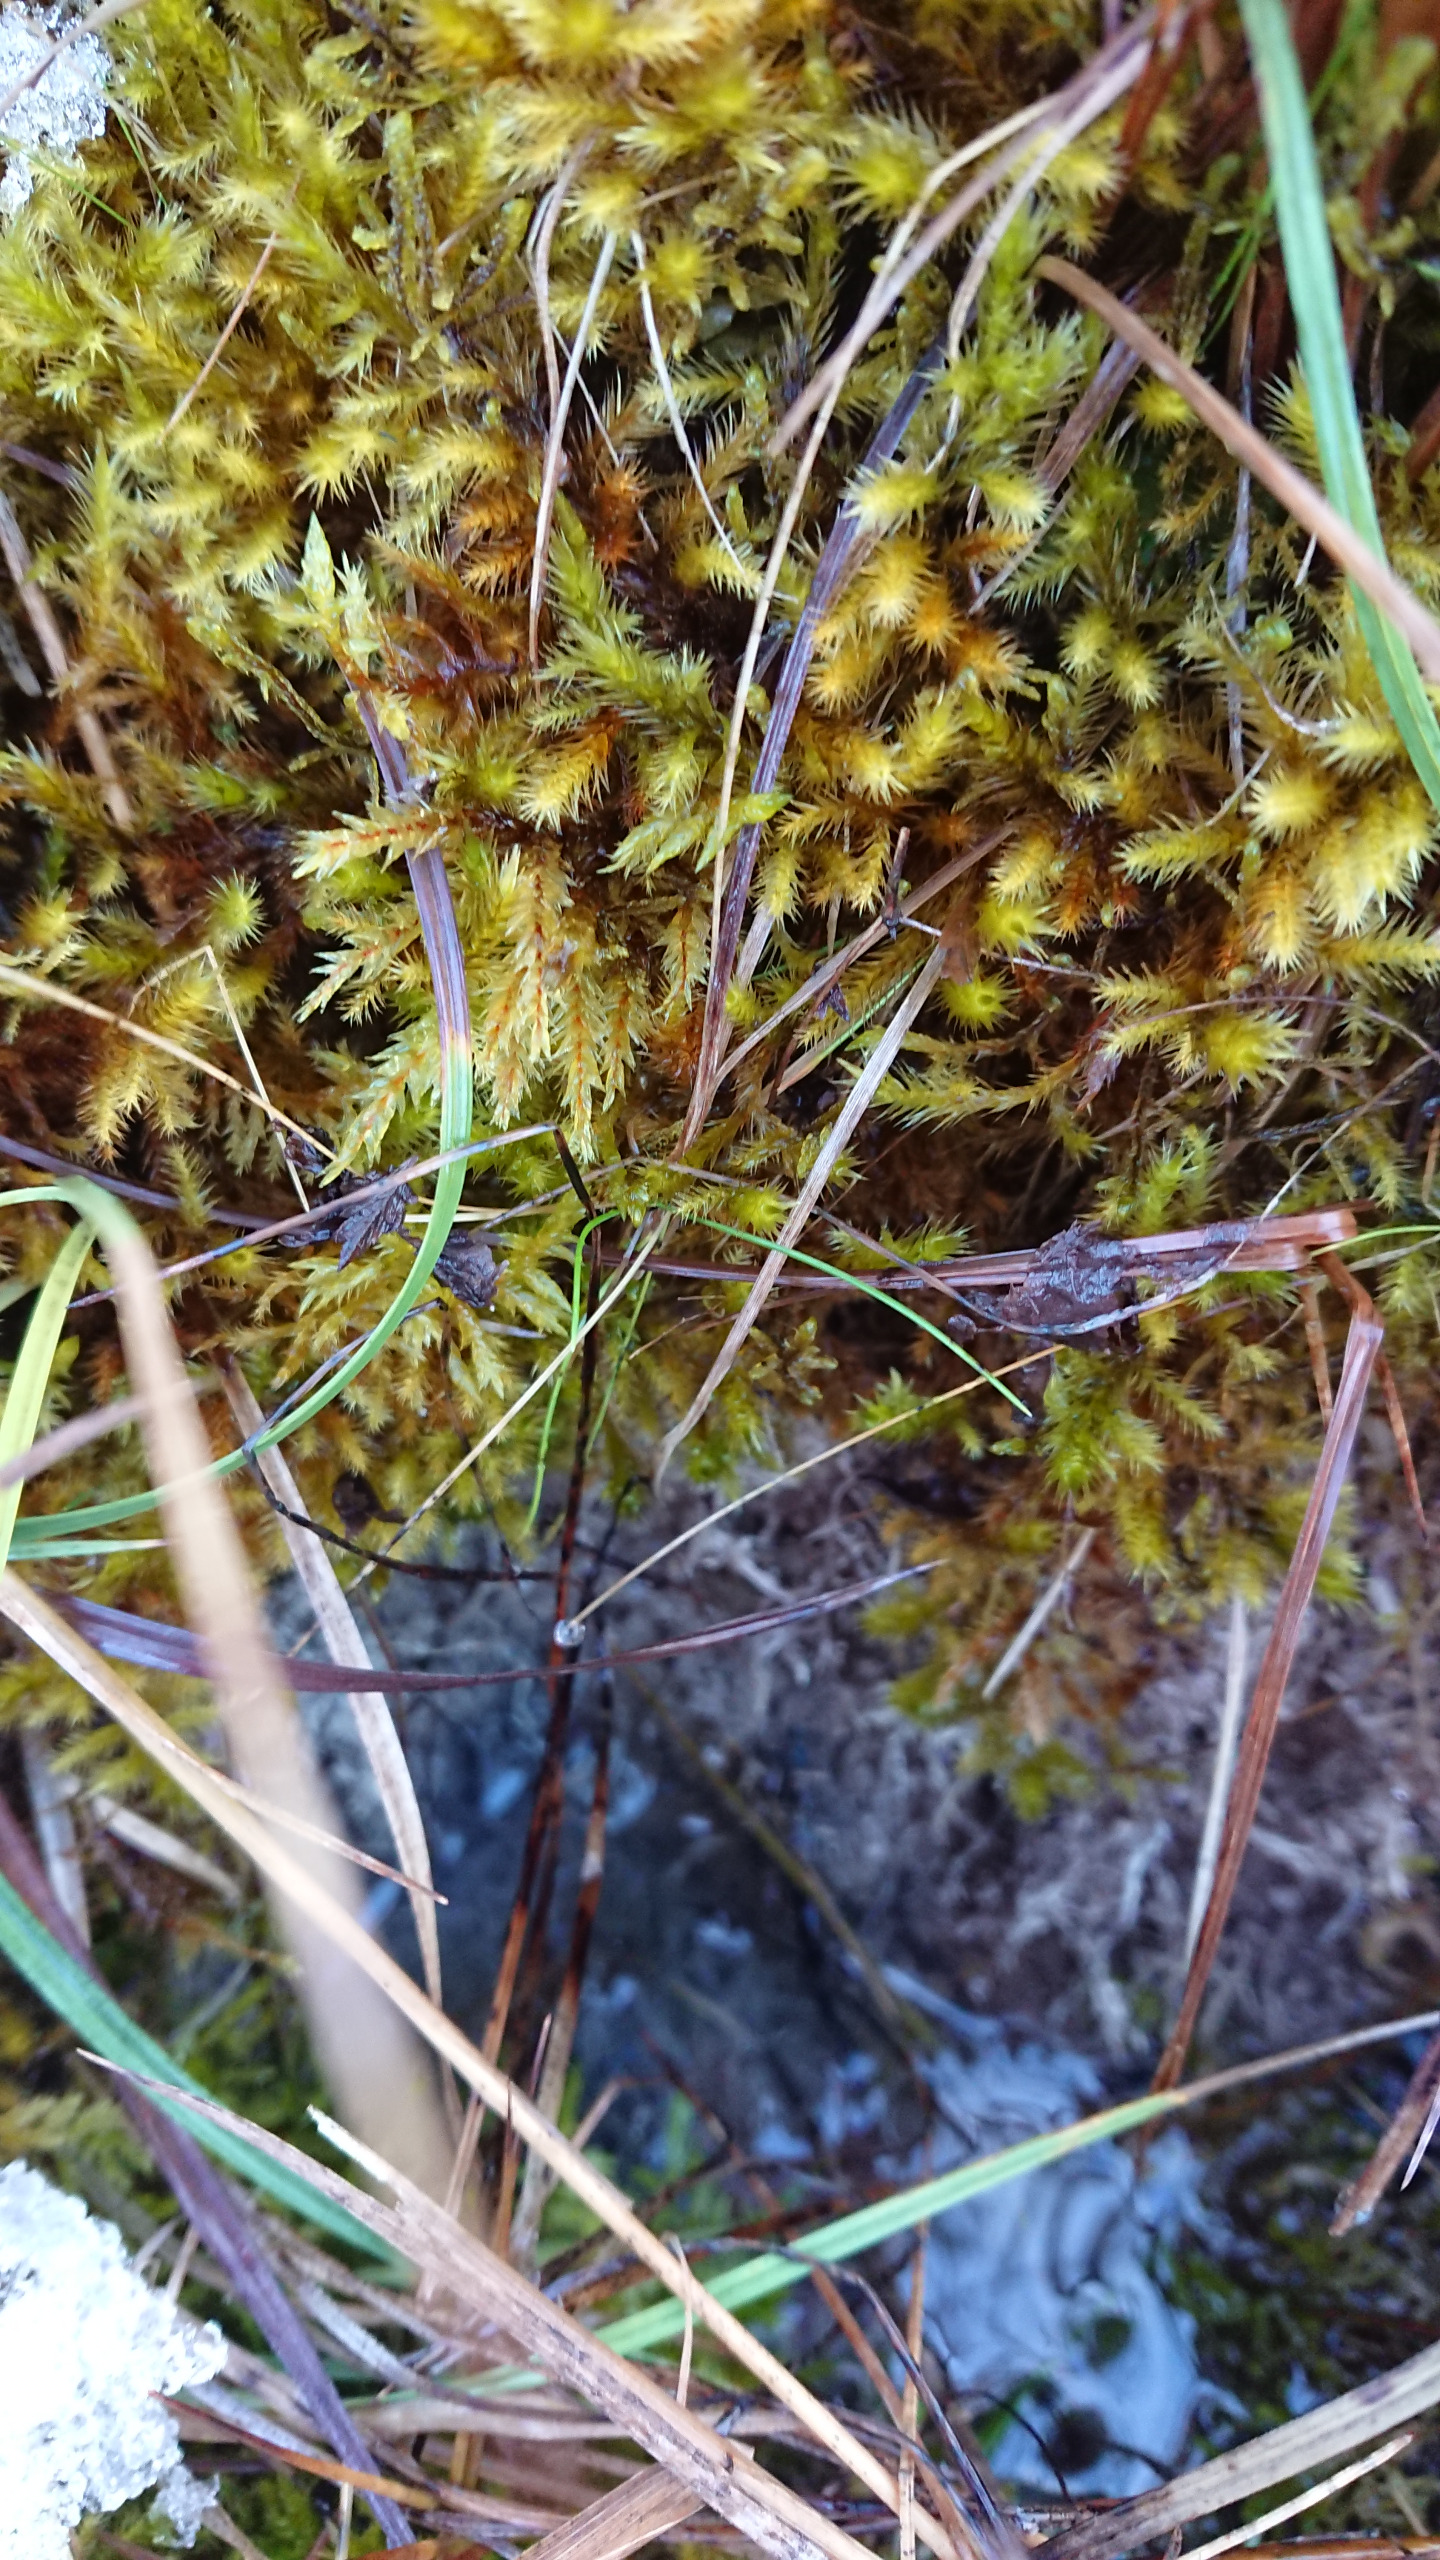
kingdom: Plantae
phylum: Bryophyta
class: Bryopsida
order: Hypnales
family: Amblystegiaceae
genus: Tomentypnum
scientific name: Tomentypnum nitens
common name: Glinsende kærmos
